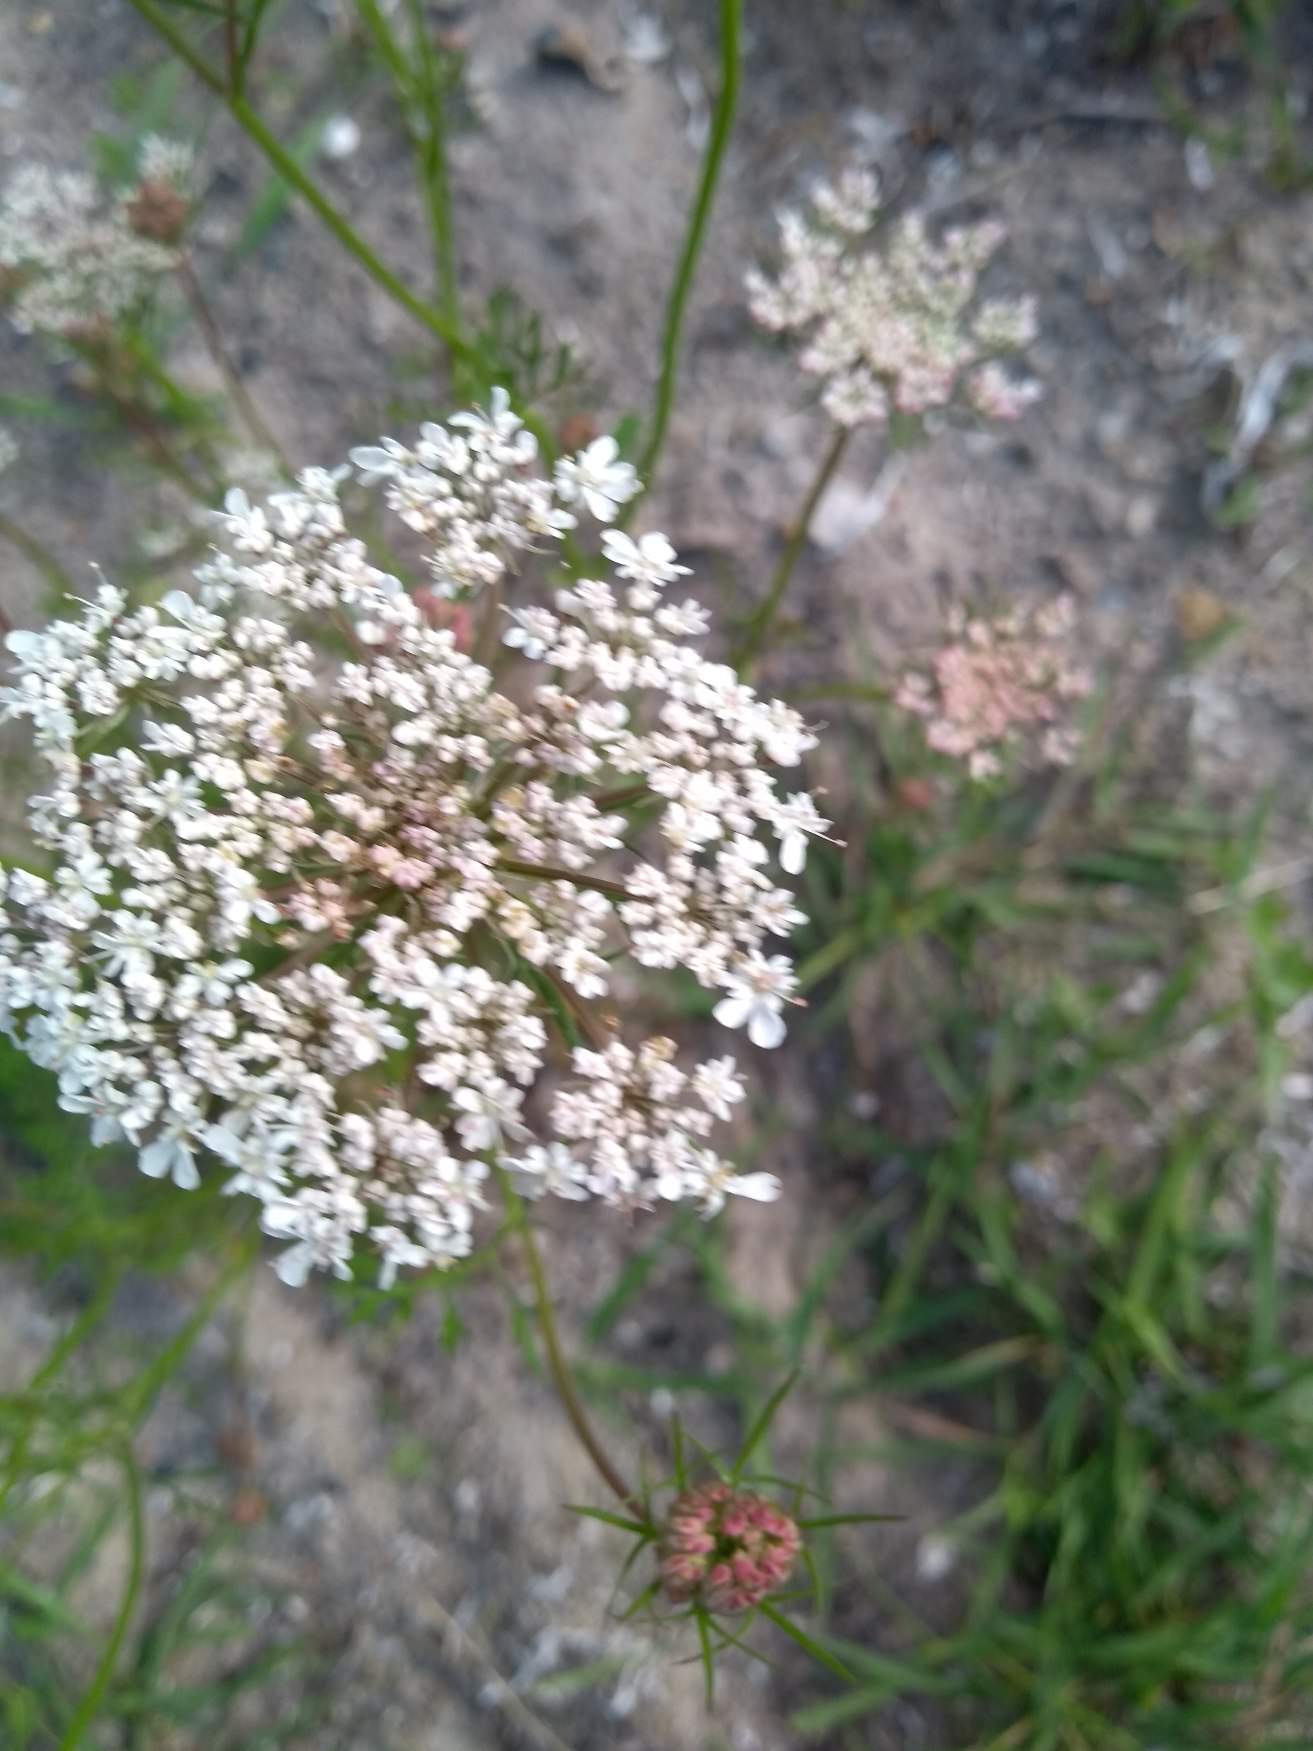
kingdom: Plantae
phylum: Tracheophyta
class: Magnoliopsida
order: Apiales
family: Apiaceae
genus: Daucus
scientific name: Daucus carota
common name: Gulerod
